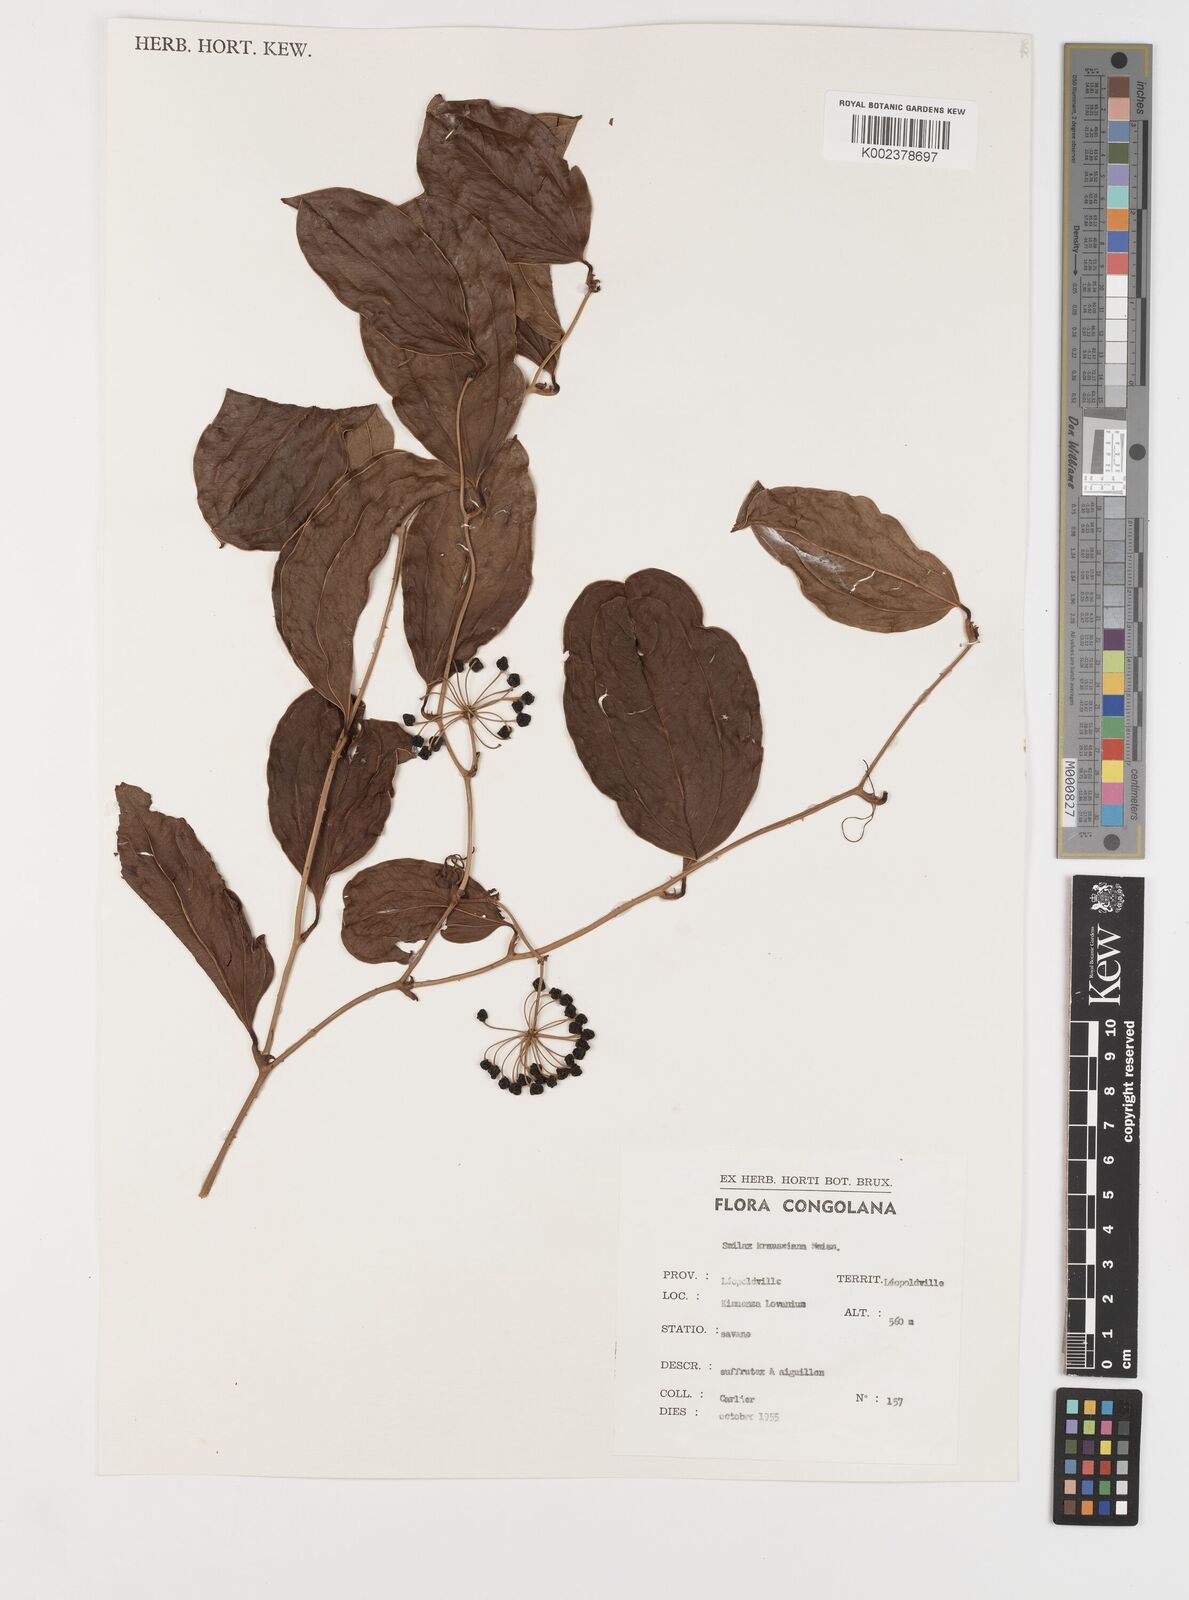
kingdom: Plantae
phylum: Tracheophyta
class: Liliopsida
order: Liliales
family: Smilacaceae
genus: Smilax
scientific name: Smilax anceps
